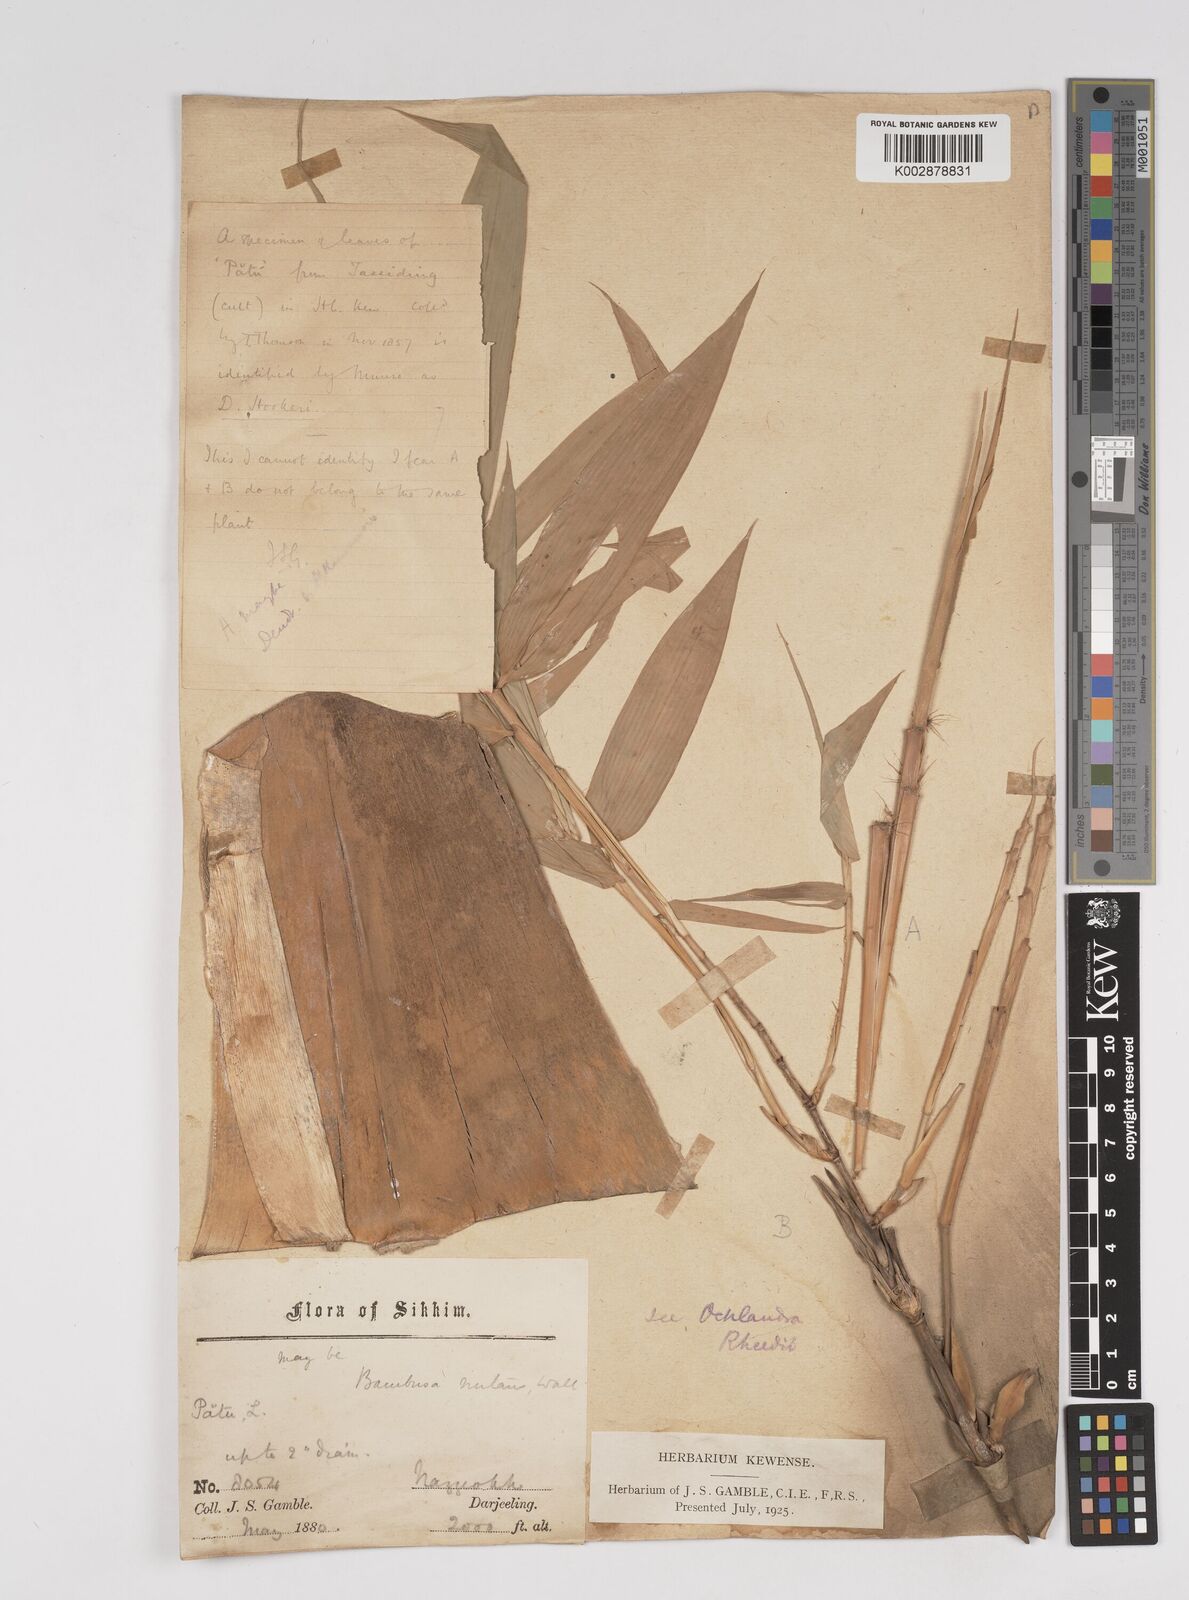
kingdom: Plantae
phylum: Tracheophyta
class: Liliopsida
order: Poales
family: Poaceae
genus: Dendrocalamus
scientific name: Dendrocalamus hookeri
